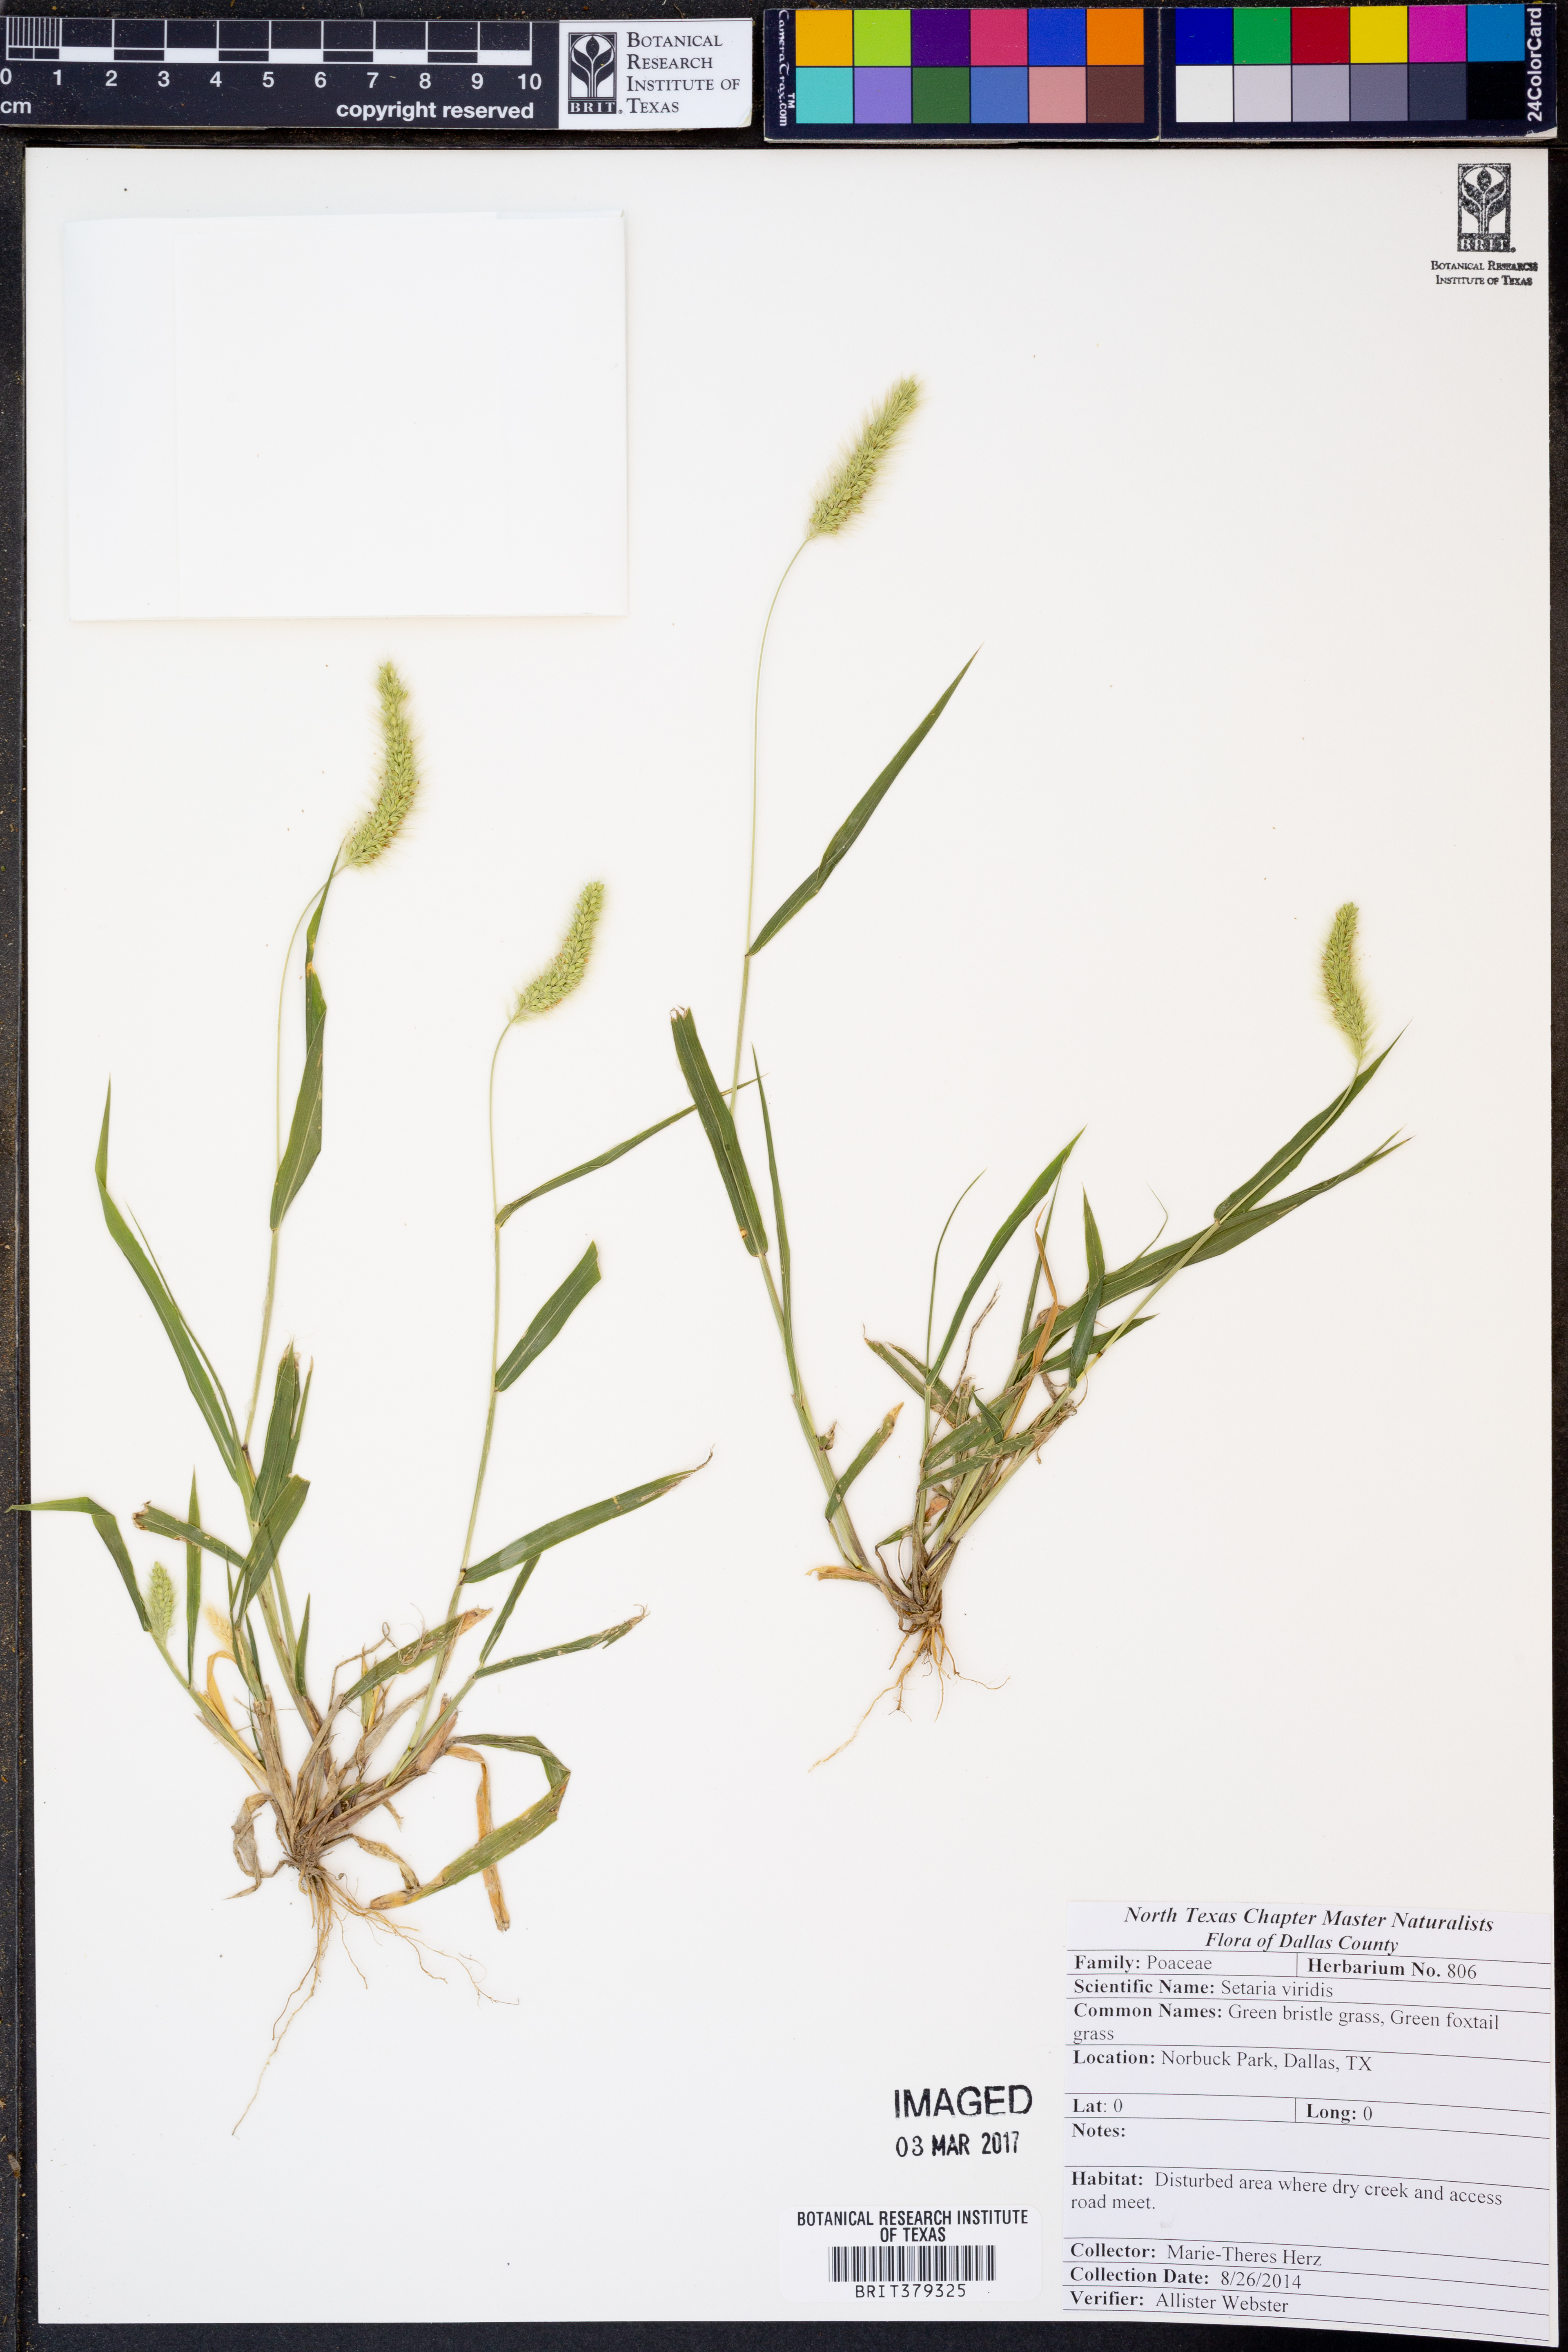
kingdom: Plantae
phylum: Tracheophyta
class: Liliopsida
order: Poales
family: Poaceae
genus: Setaria
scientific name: Setaria viridis
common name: Green bristlegrass
